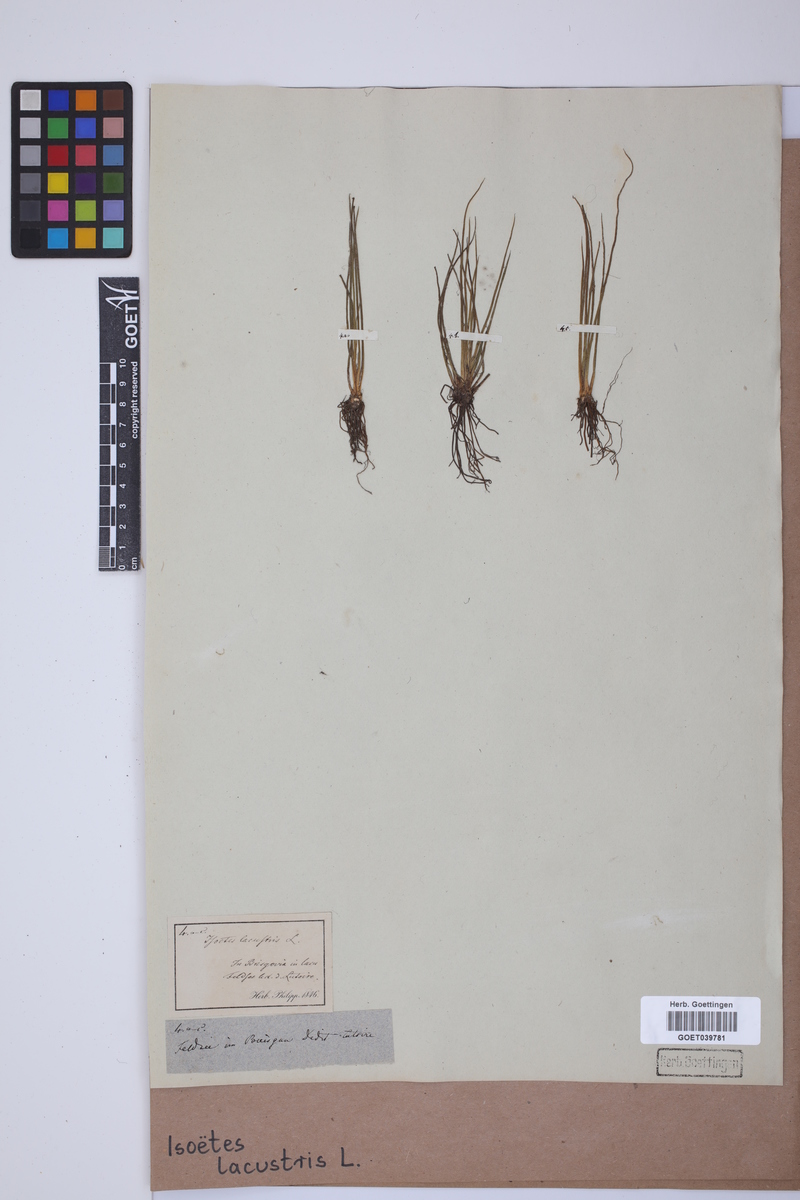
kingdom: Plantae
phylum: Tracheophyta
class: Lycopodiopsida
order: Isoetales
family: Isoetaceae
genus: Isoetes
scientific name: Isoetes lacustris
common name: Common quillwort
